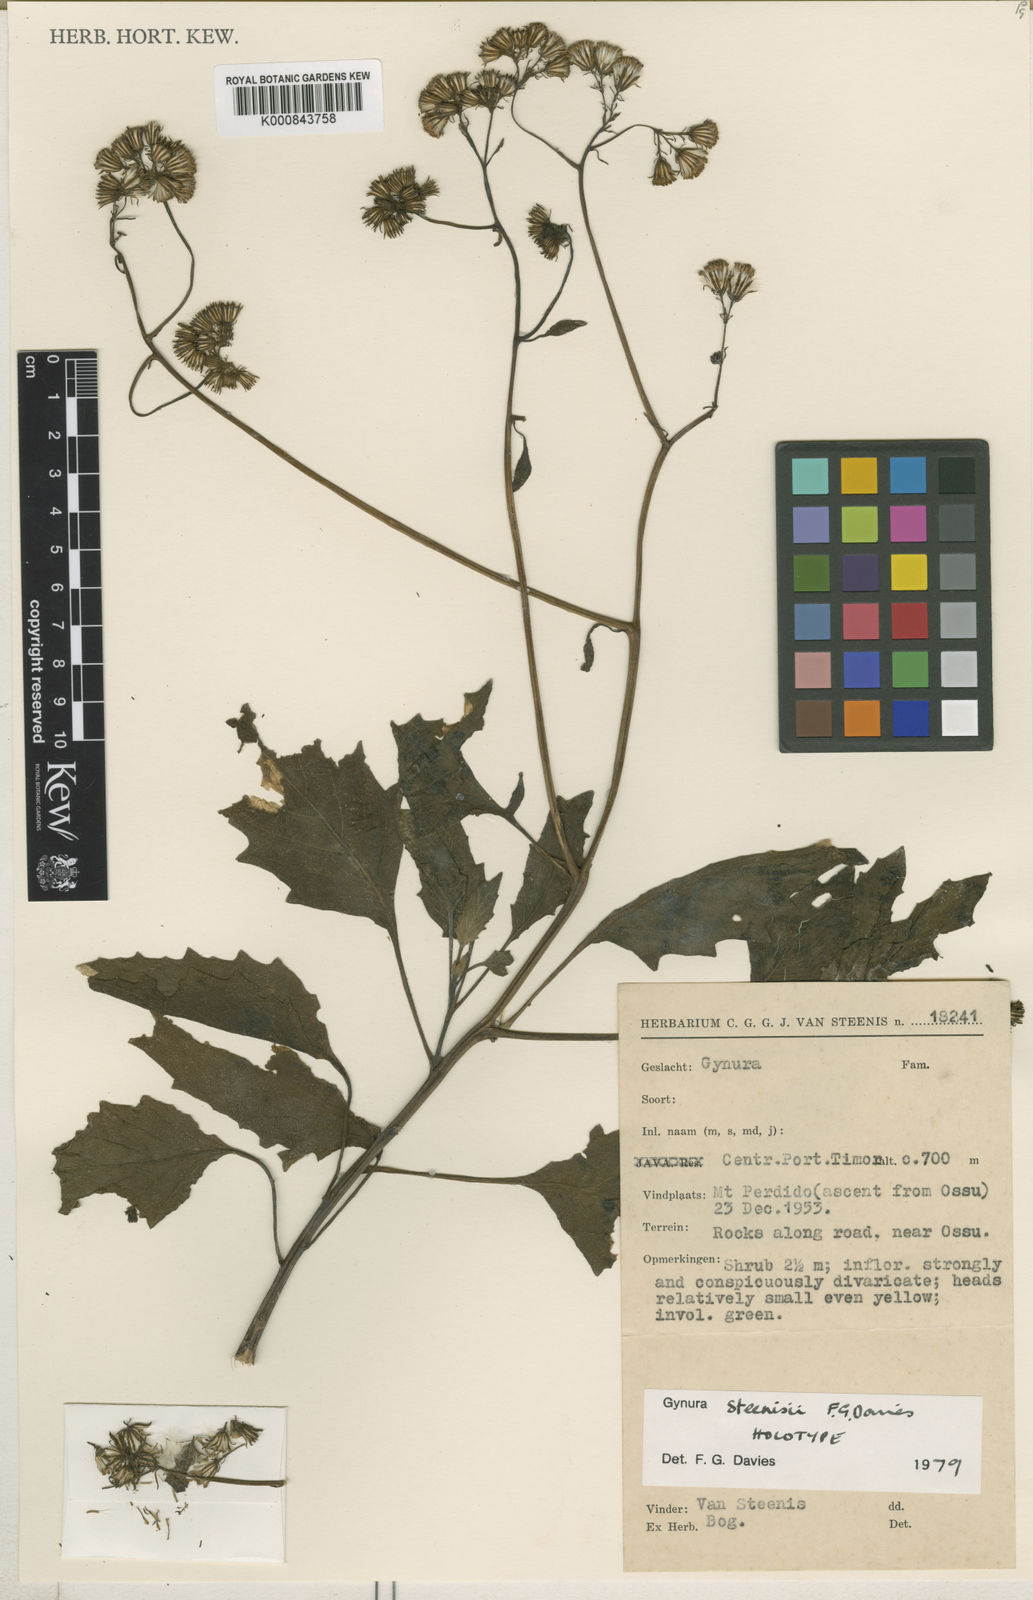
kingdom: Plantae
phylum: Tracheophyta
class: Magnoliopsida
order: Asterales
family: Asteraceae
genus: Gynura
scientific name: Gynura steenisii
